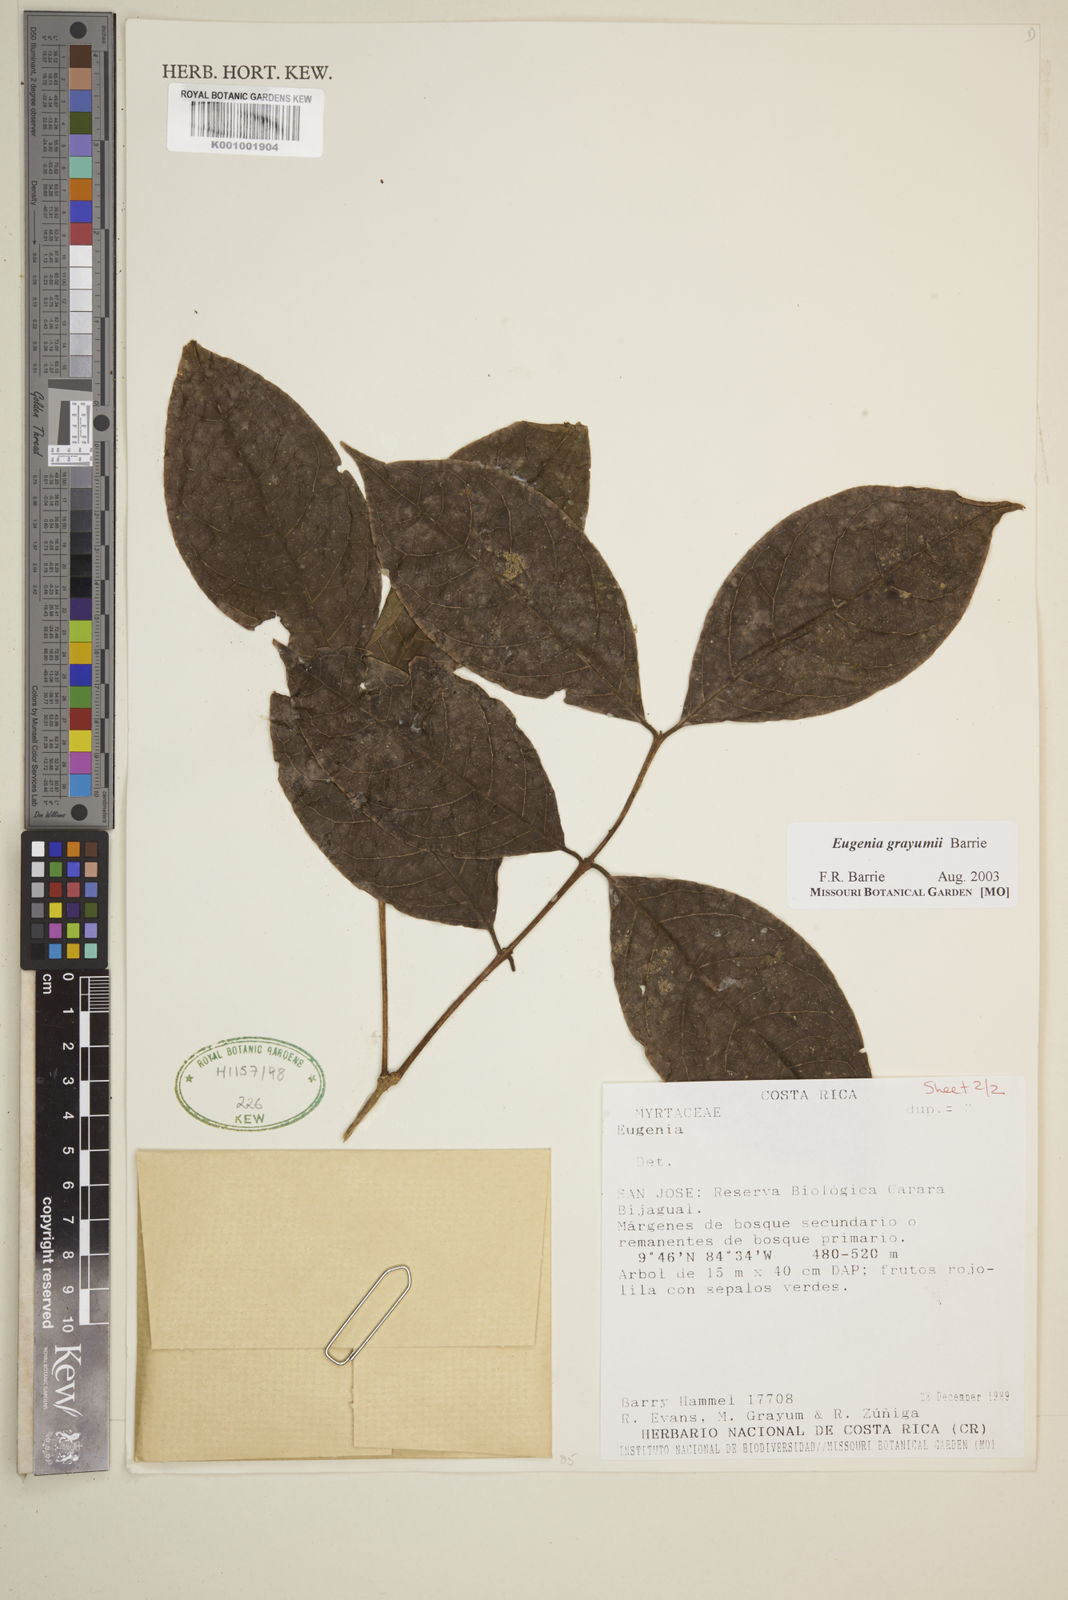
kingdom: Plantae
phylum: Tracheophyta
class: Magnoliopsida
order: Myrtales
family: Myrtaceae
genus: Eugenia
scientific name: Eugenia grayumii
